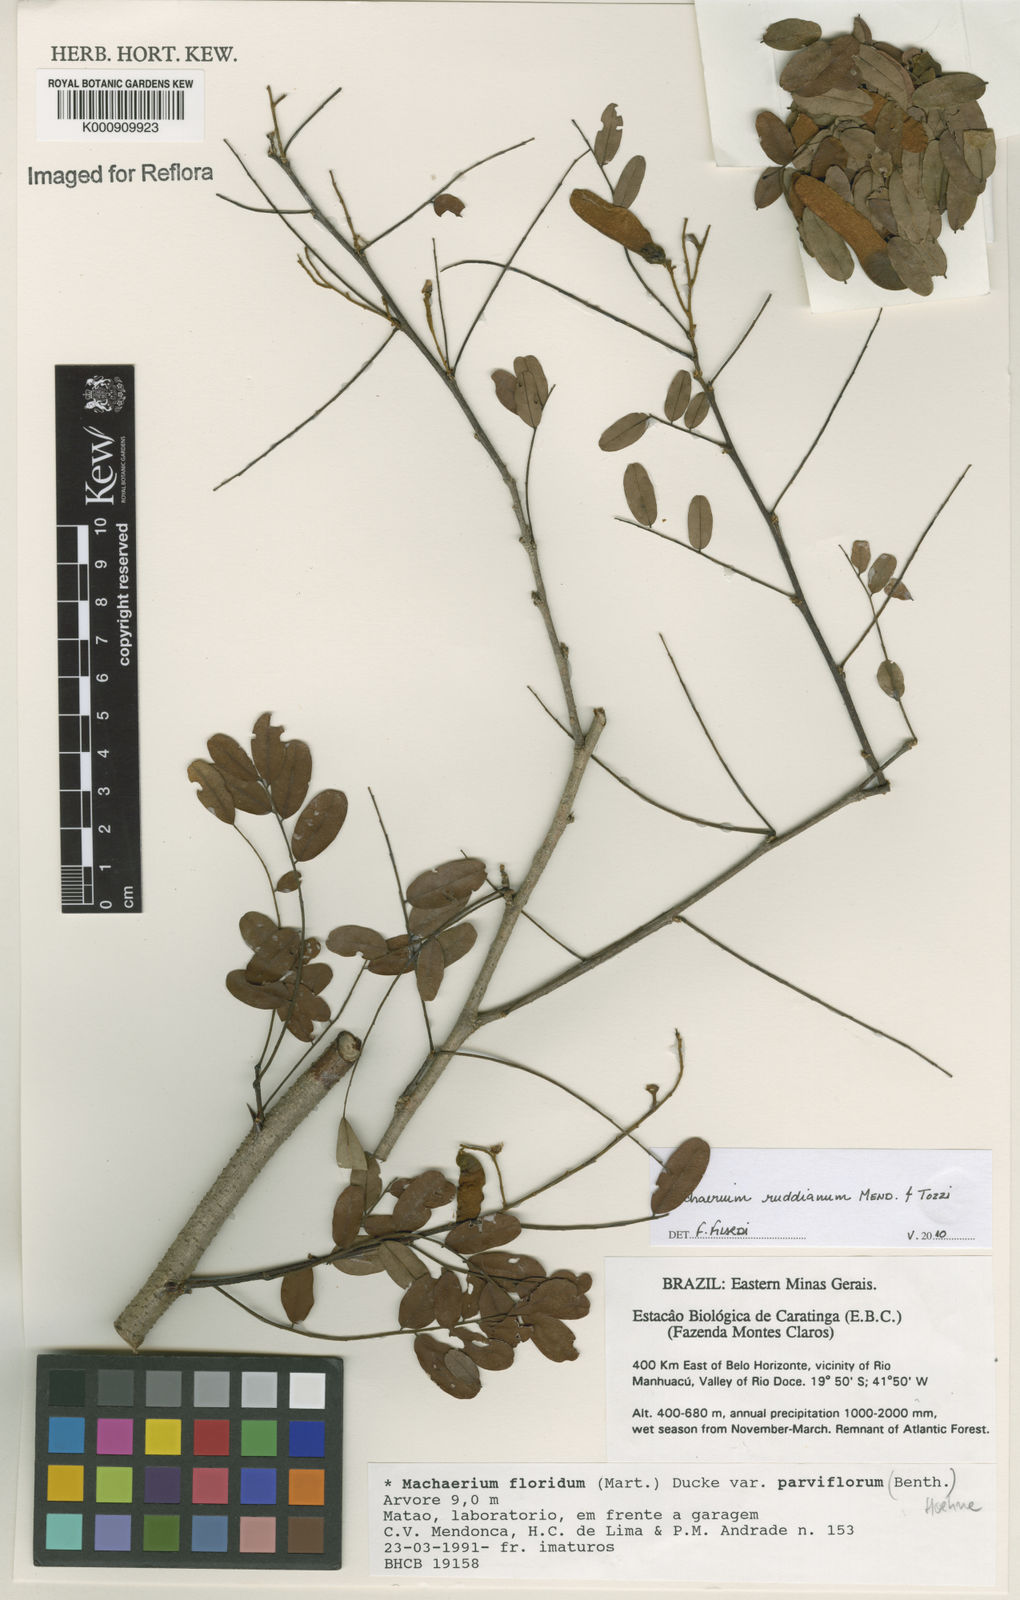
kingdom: Plantae
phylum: Tracheophyta
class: Magnoliopsida
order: Fabales
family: Fabaceae
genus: Machaerium
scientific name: Machaerium
